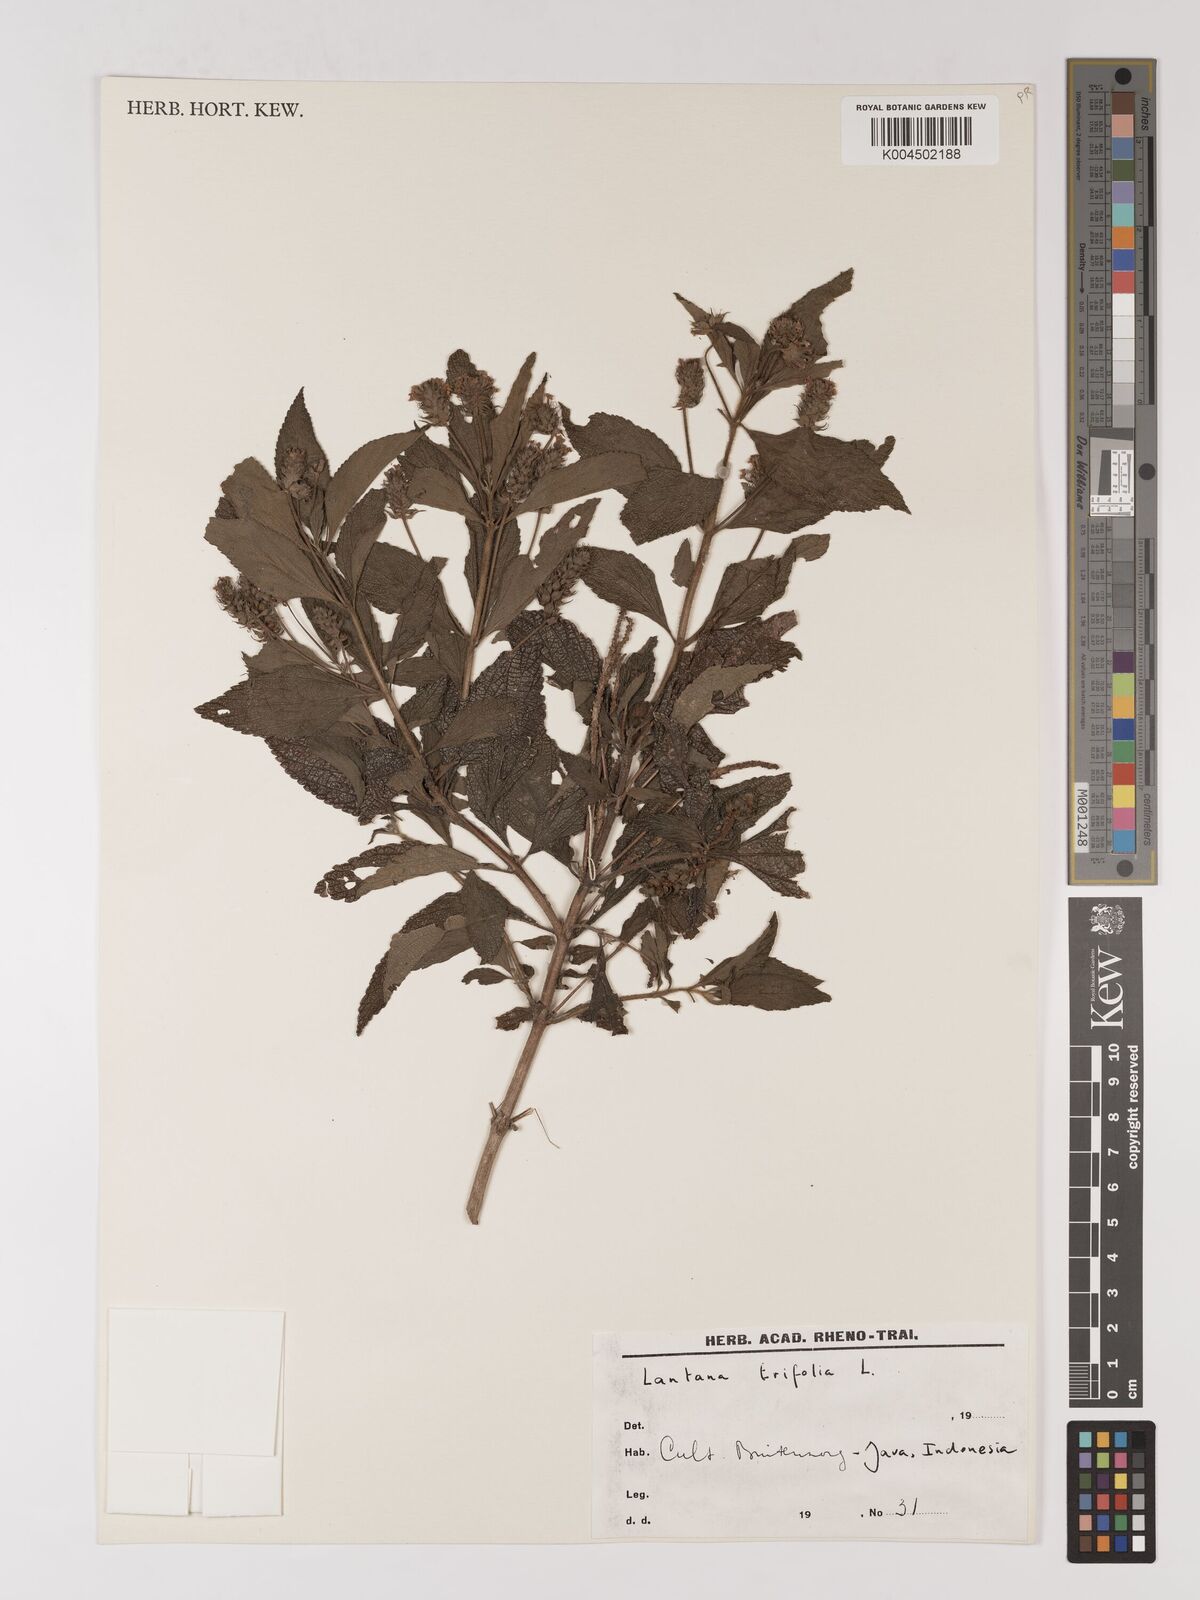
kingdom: Plantae
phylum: Tracheophyta
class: Magnoliopsida
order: Lamiales
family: Verbenaceae
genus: Lantana
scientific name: Lantana trifolia
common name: Sweet-sage
